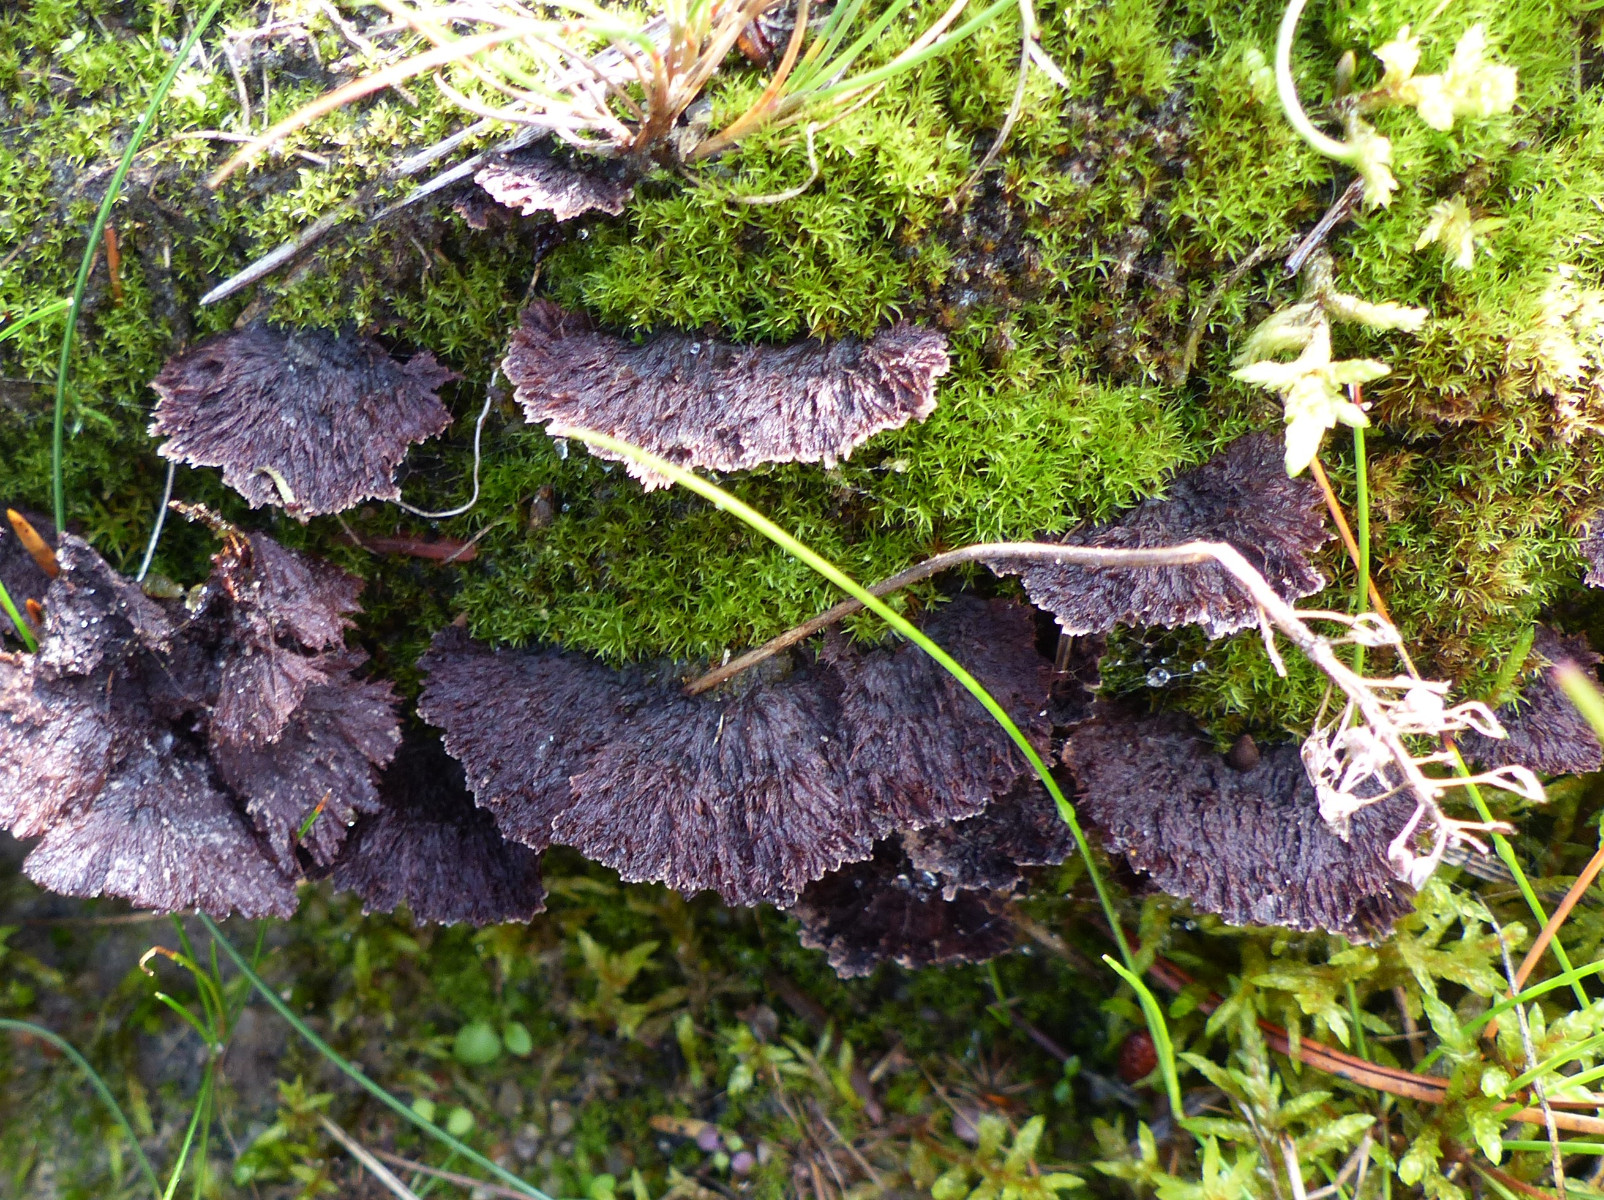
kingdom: Fungi
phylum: Basidiomycota
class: Agaricomycetes
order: Thelephorales
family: Thelephoraceae
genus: Thelephora
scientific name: Thelephora terrestris
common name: fliget frynsesvamp
